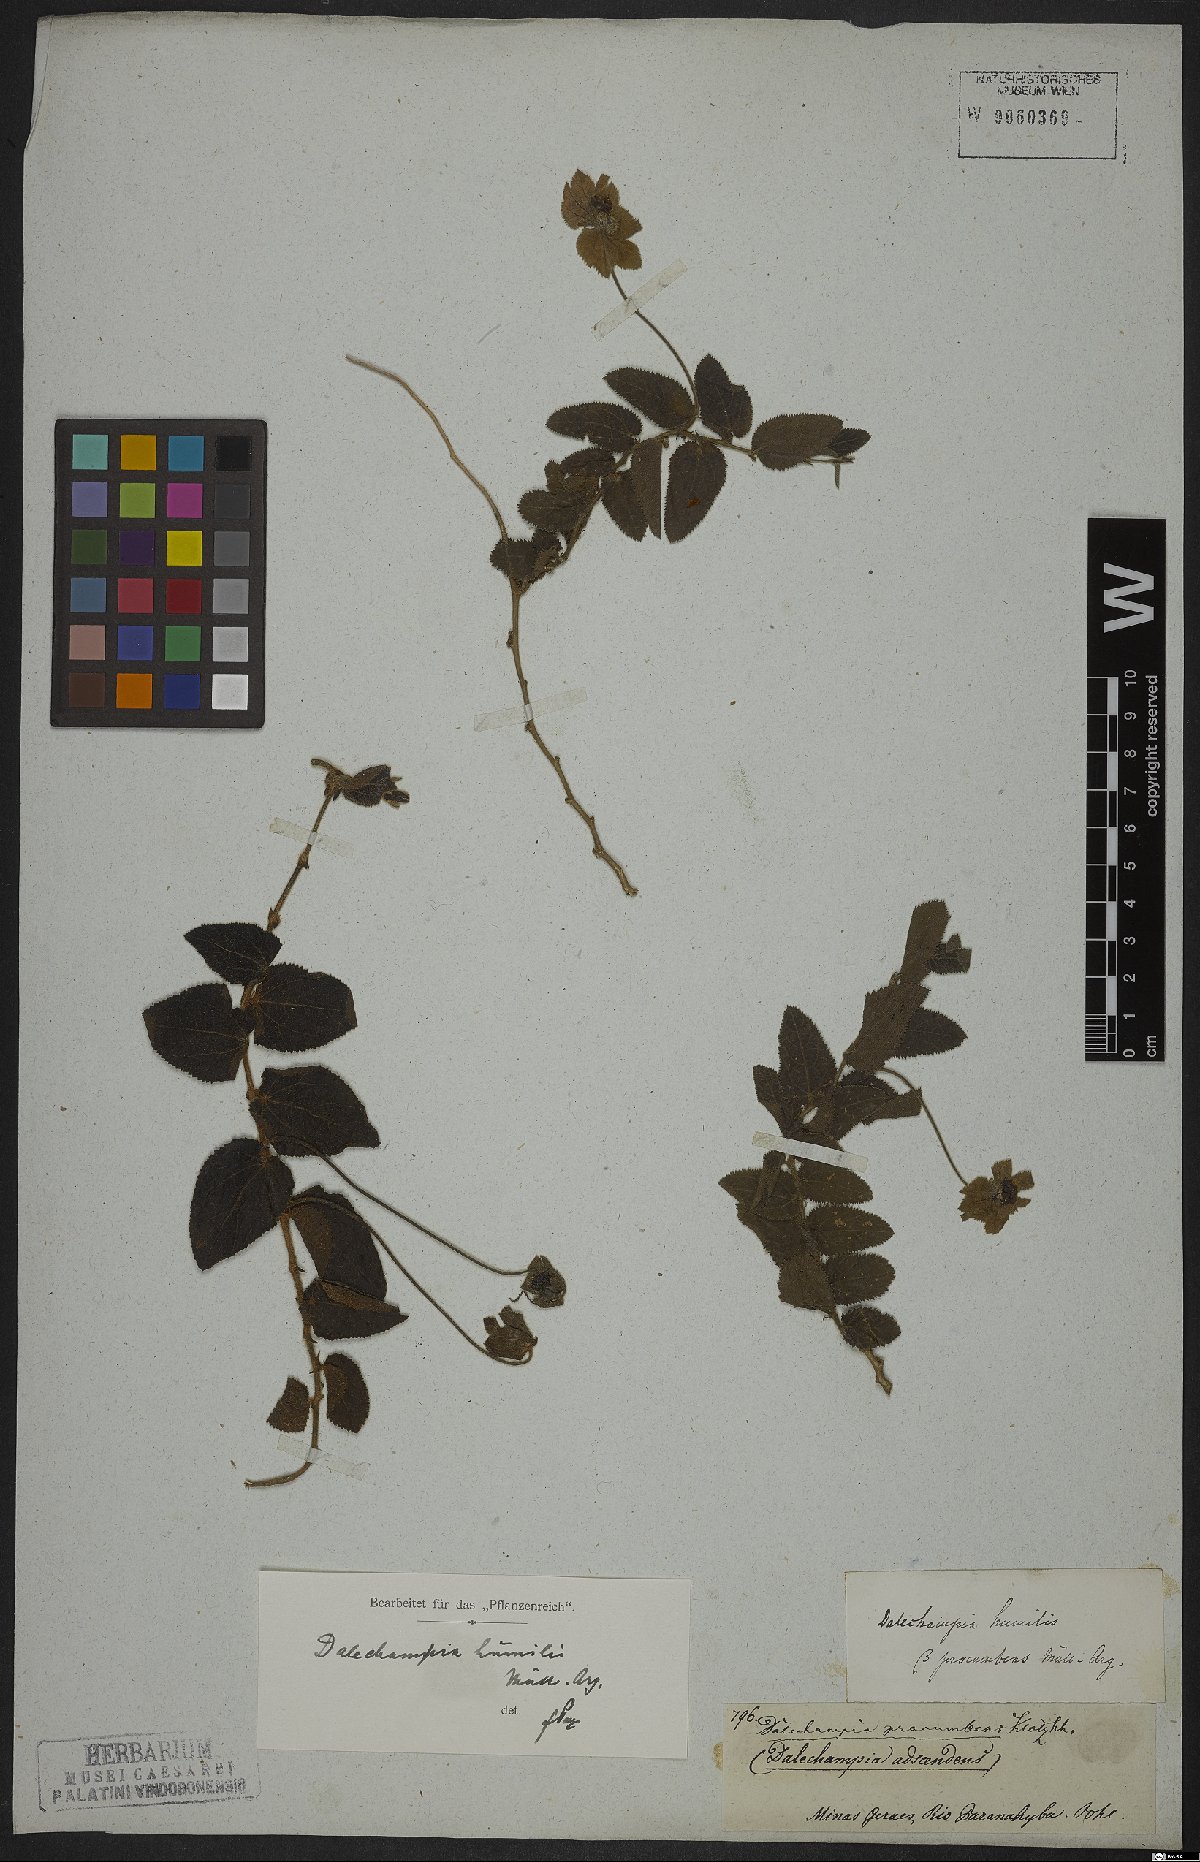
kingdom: Plantae
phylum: Tracheophyta
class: Magnoliopsida
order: Malpighiales
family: Euphorbiaceae
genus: Dalechampia
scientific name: Dalechampia humilis
